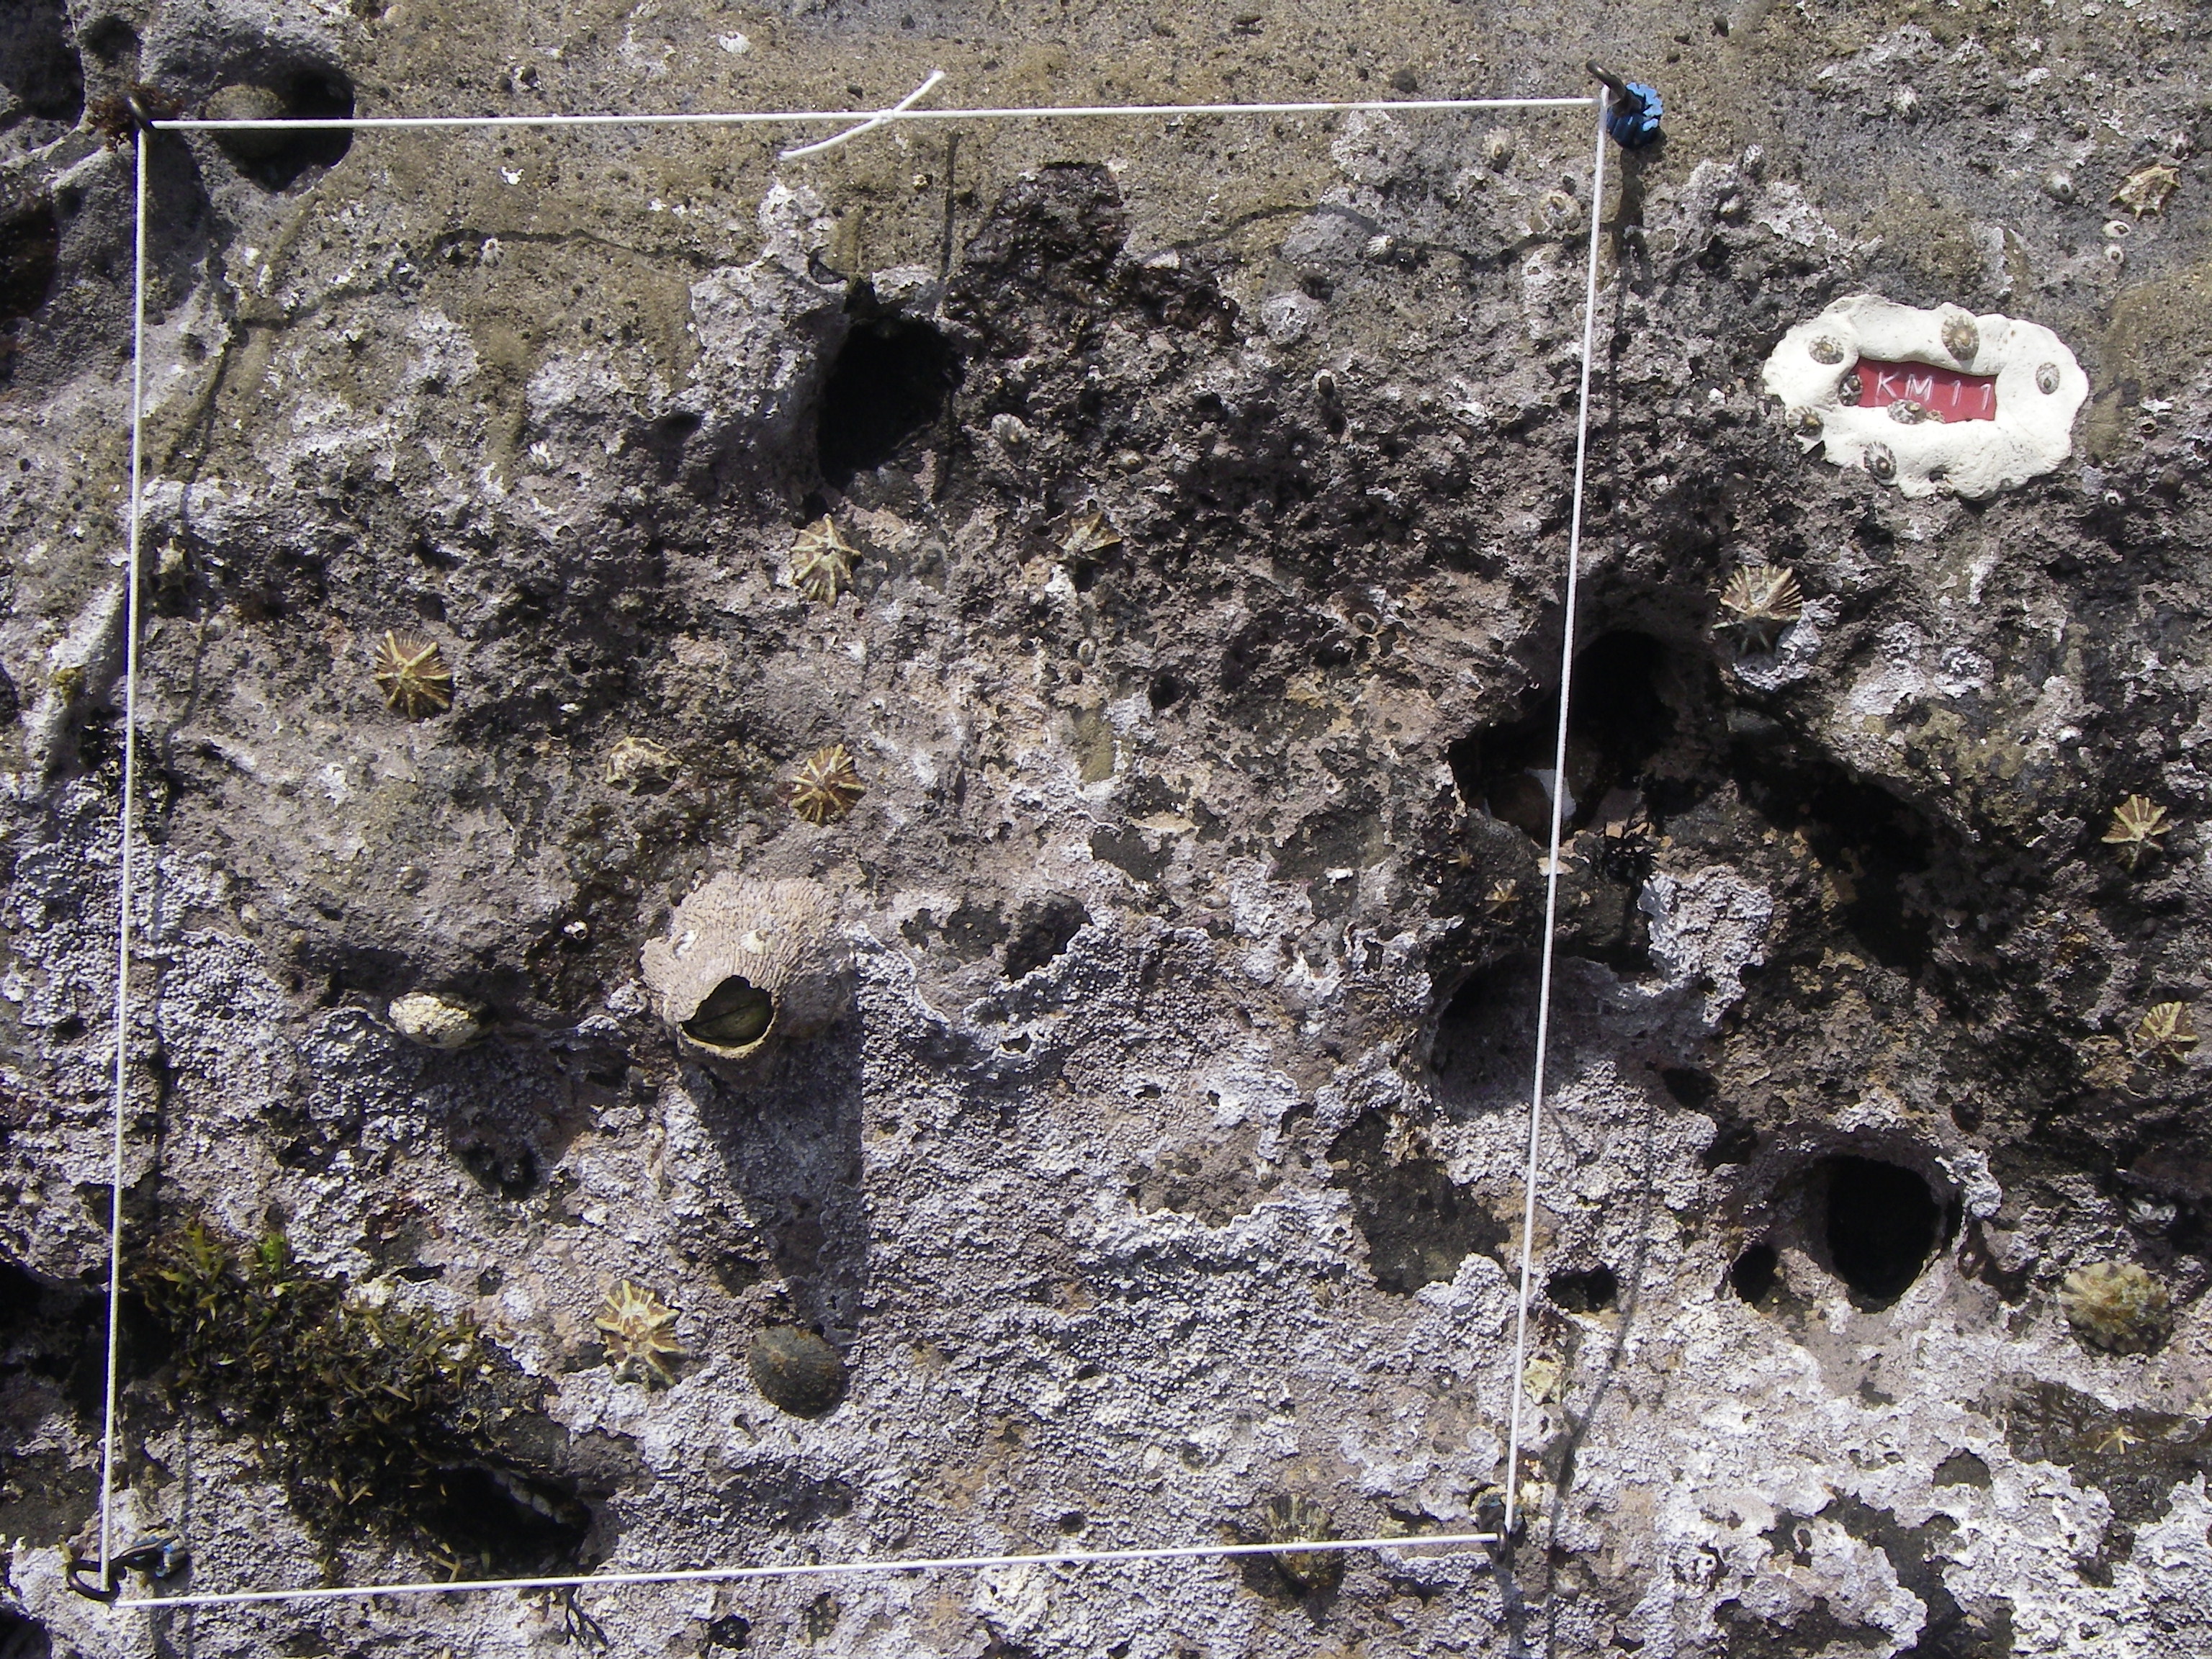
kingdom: Chromista
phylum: Ochrophyta
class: Phaeophyceae
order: Fucales
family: Sargassaceae
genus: Sargassum
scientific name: Sargassum fusiforme
